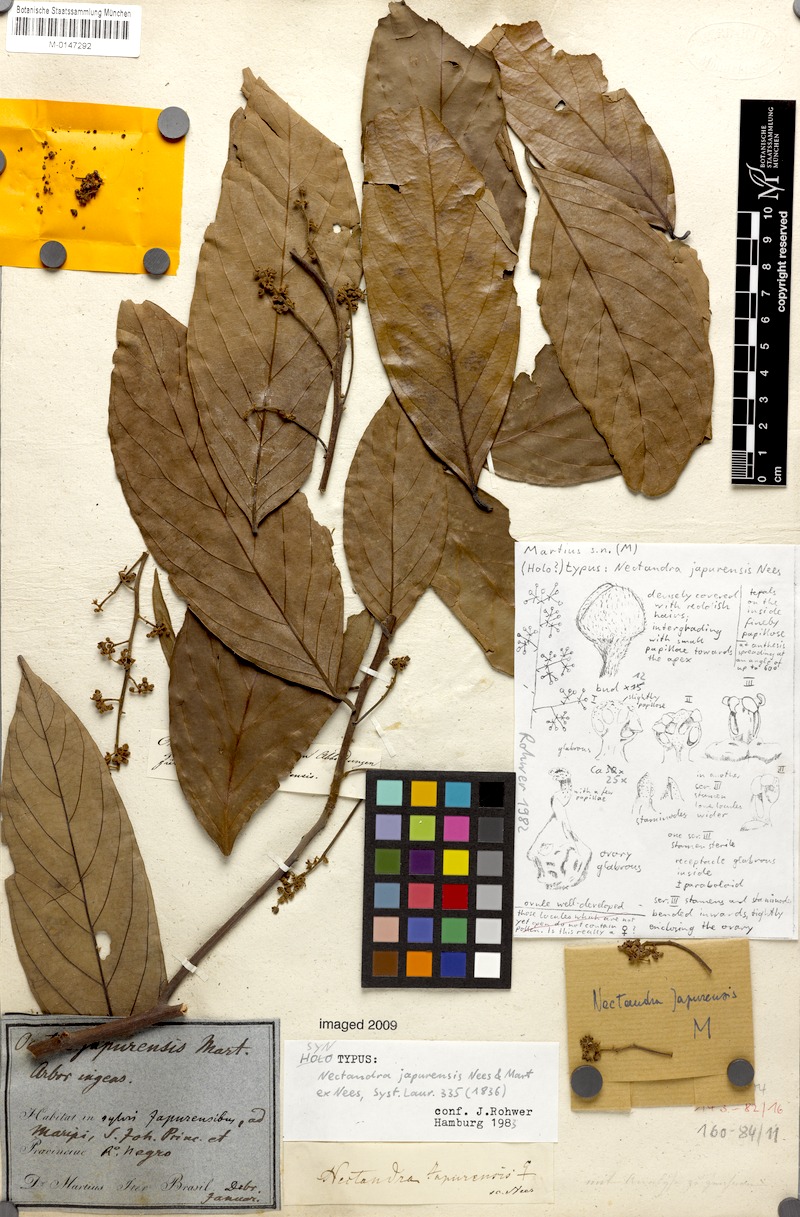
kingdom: Plantae
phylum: Tracheophyta
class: Magnoliopsida
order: Laurales
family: Lauraceae
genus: Nectandra
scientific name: Nectandra japurensis
